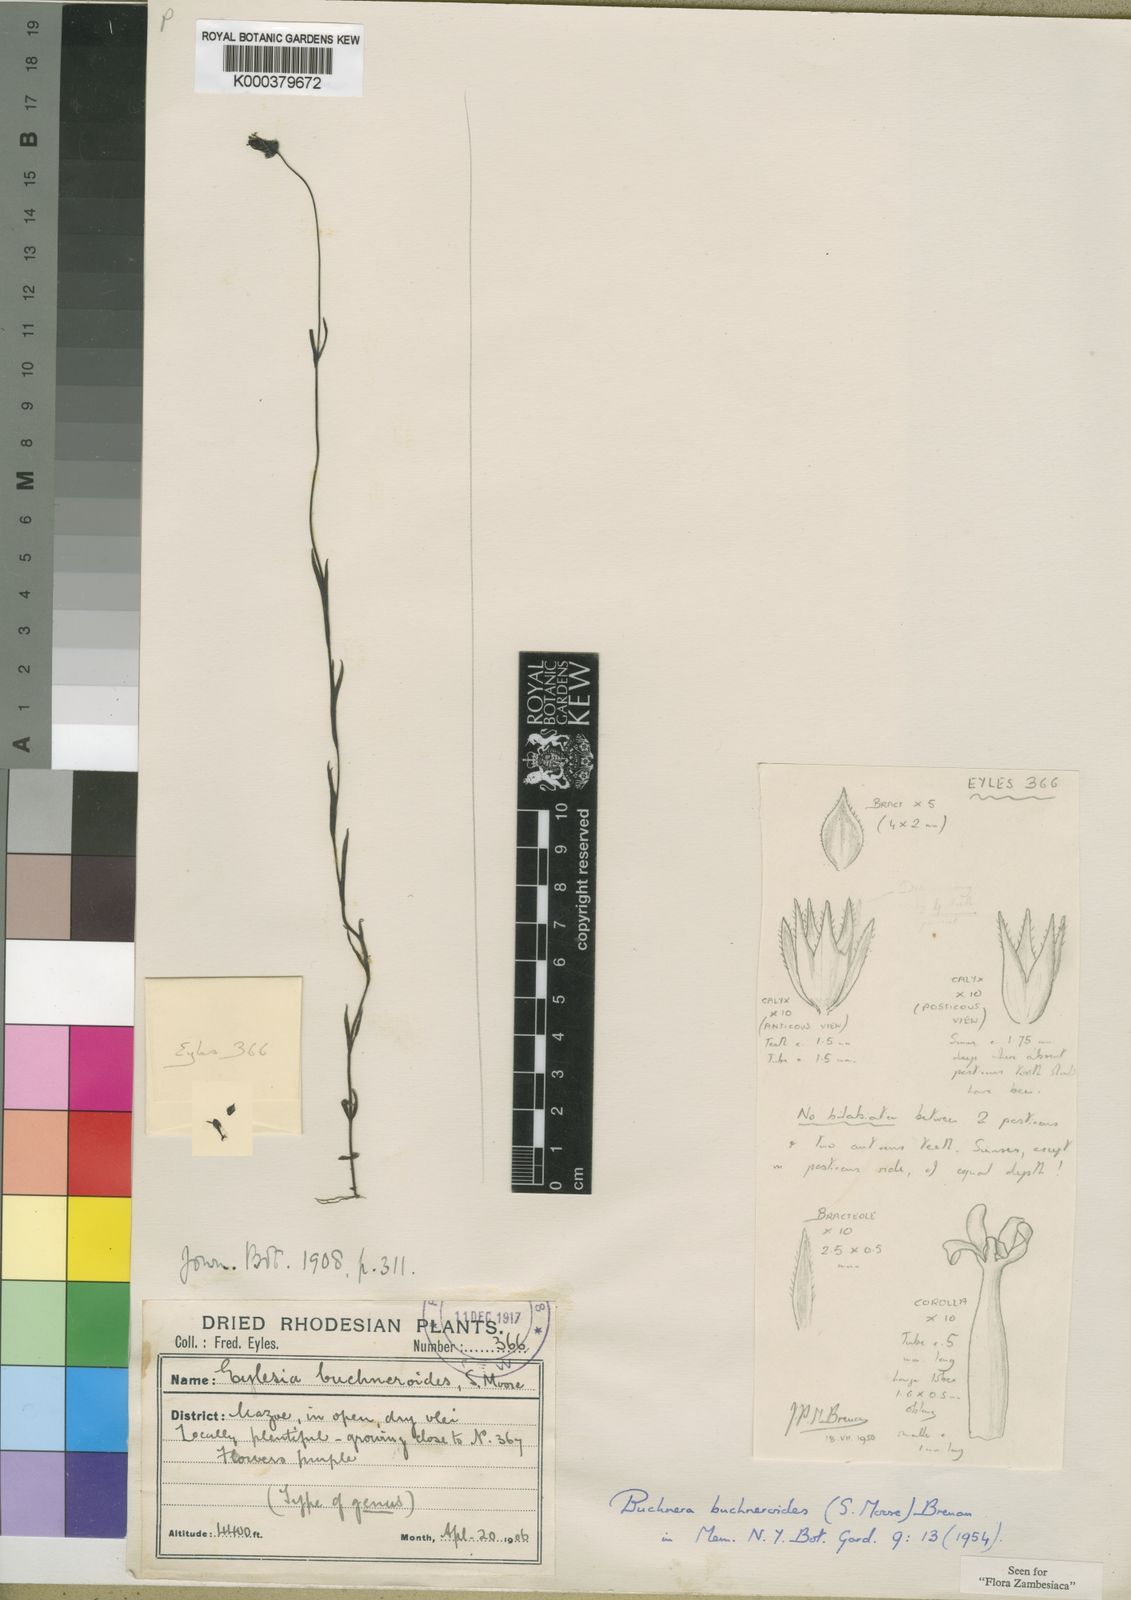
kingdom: Plantae
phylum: Tracheophyta
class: Magnoliopsida
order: Lamiales
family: Orobanchaceae
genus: Buchnera
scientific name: Buchnera buchneroides
